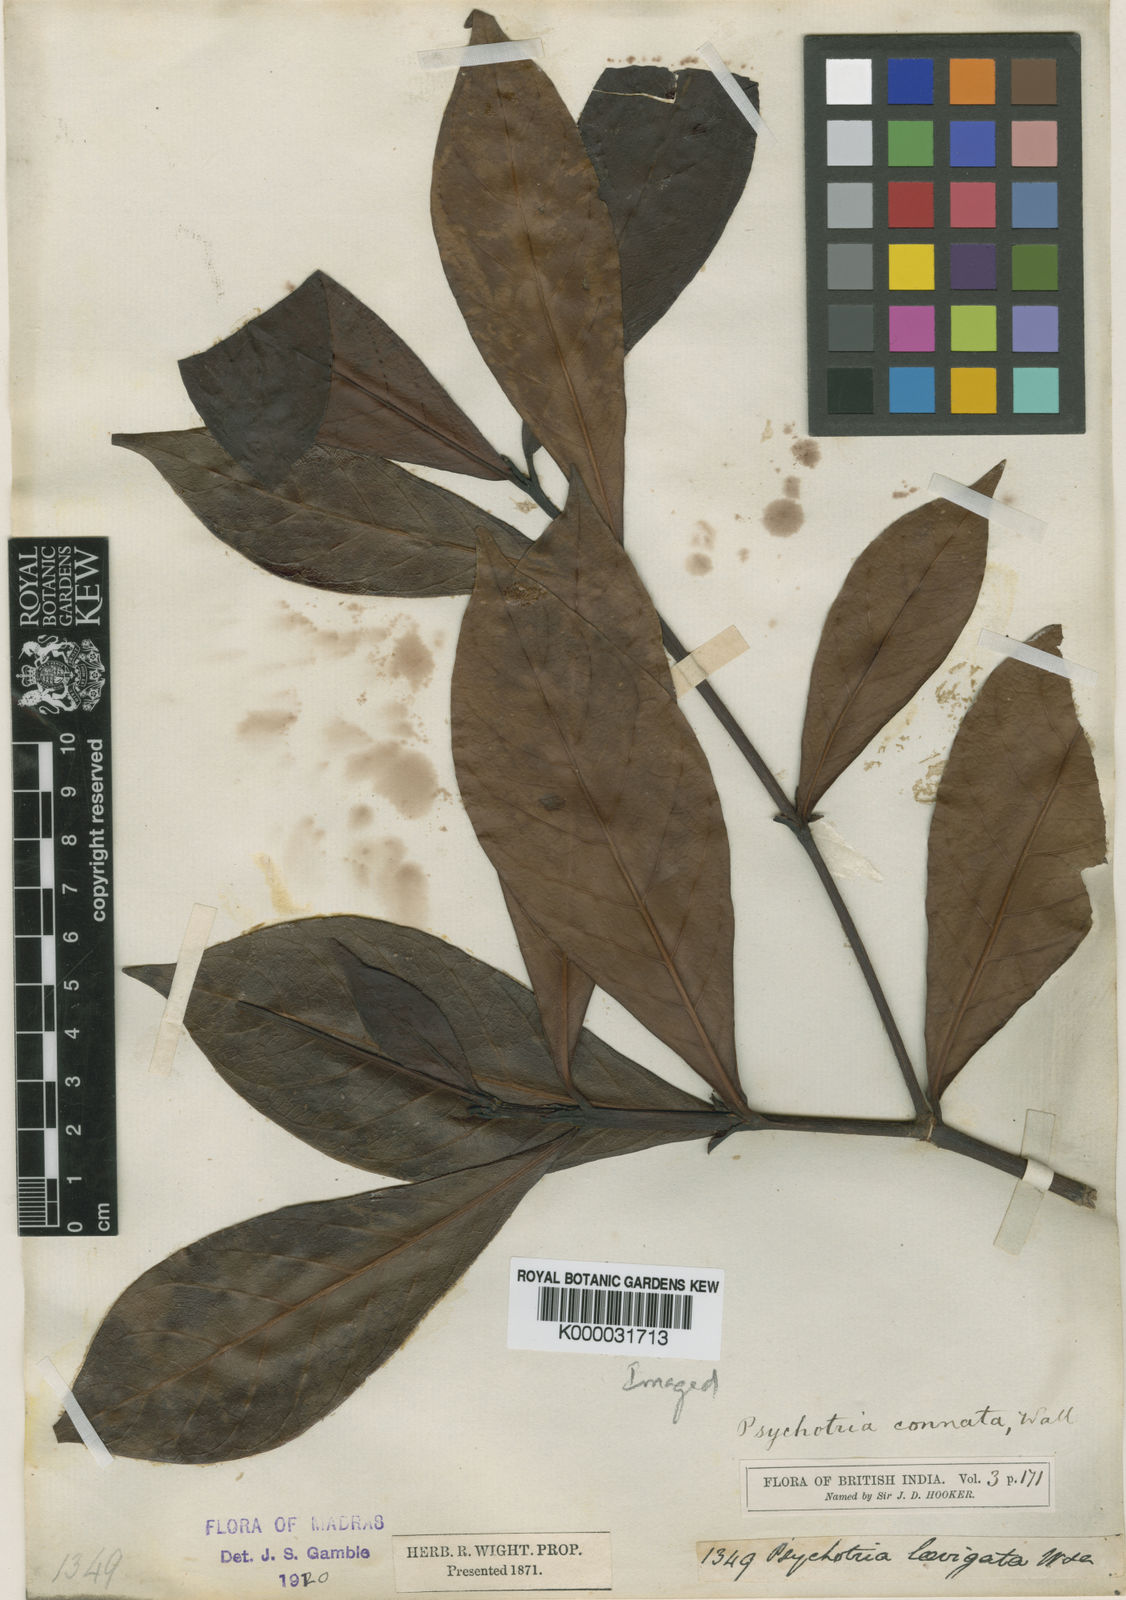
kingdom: Plantae
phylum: Tracheophyta
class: Magnoliopsida
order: Gentianales
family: Rubiaceae
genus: Psychotria
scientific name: Psychotria connata
